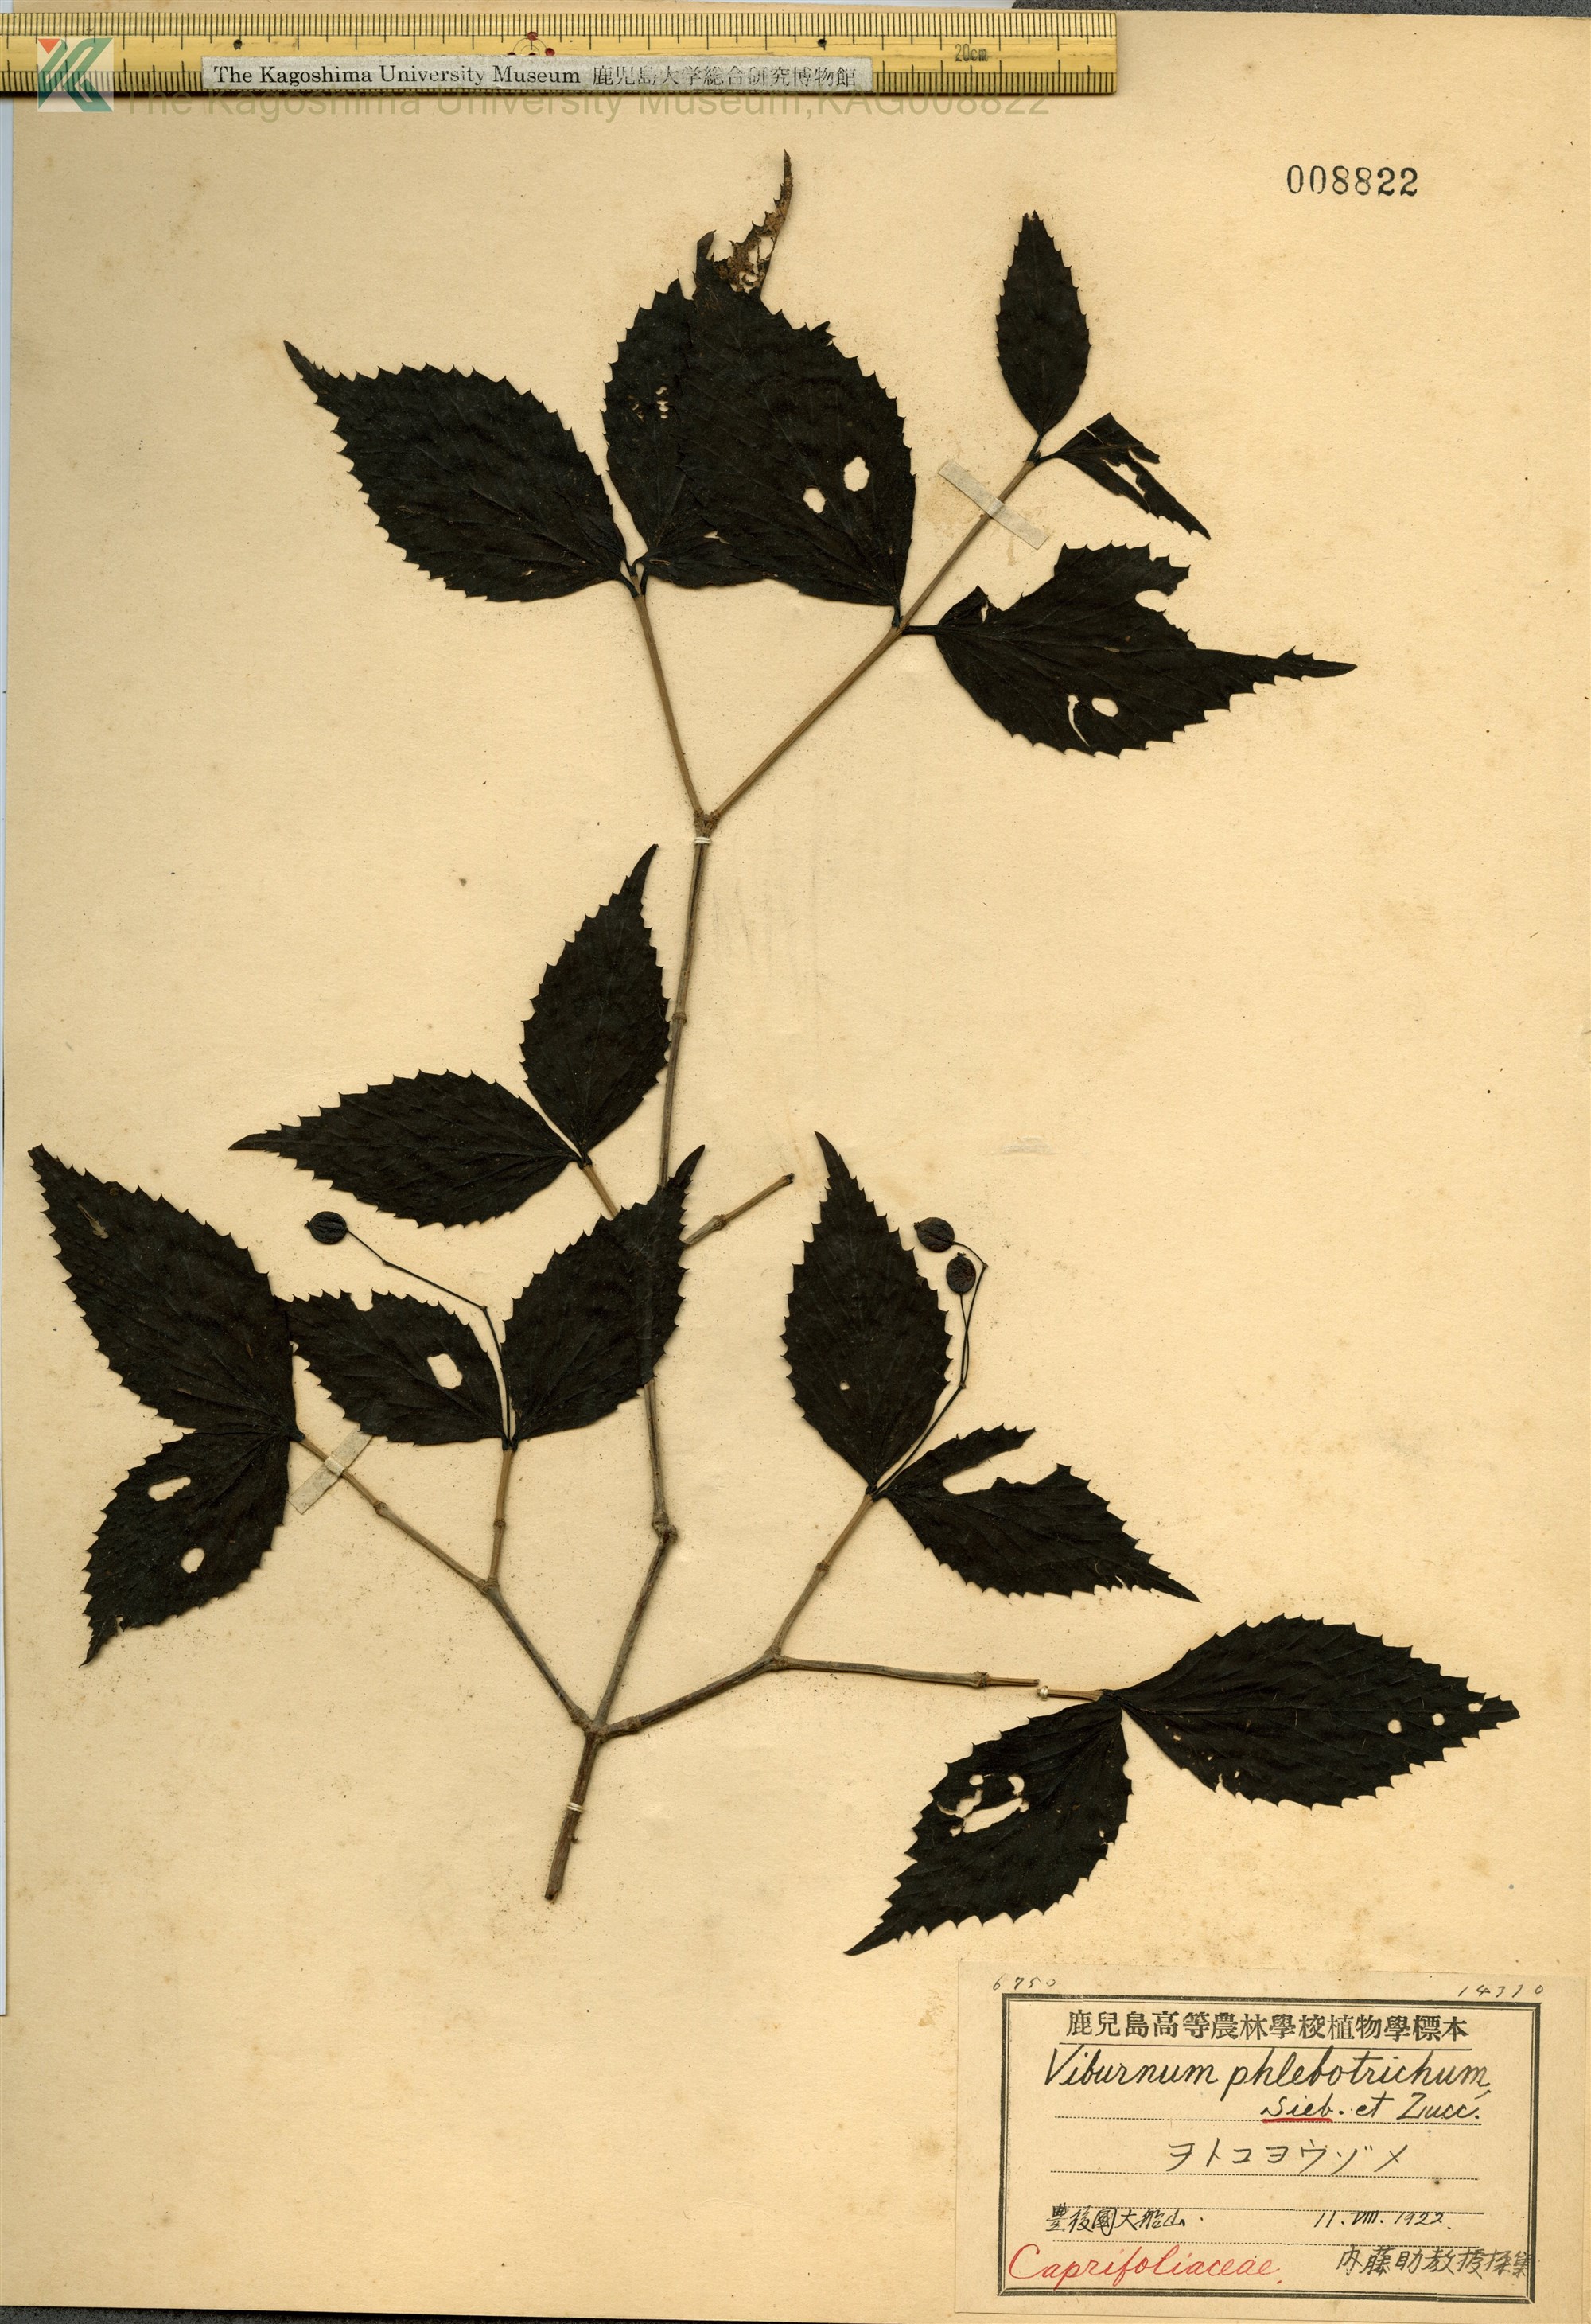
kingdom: Plantae
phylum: Tracheophyta
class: Magnoliopsida
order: Dipsacales
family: Viburnaceae
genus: Viburnum
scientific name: Viburnum phlebotrichum
